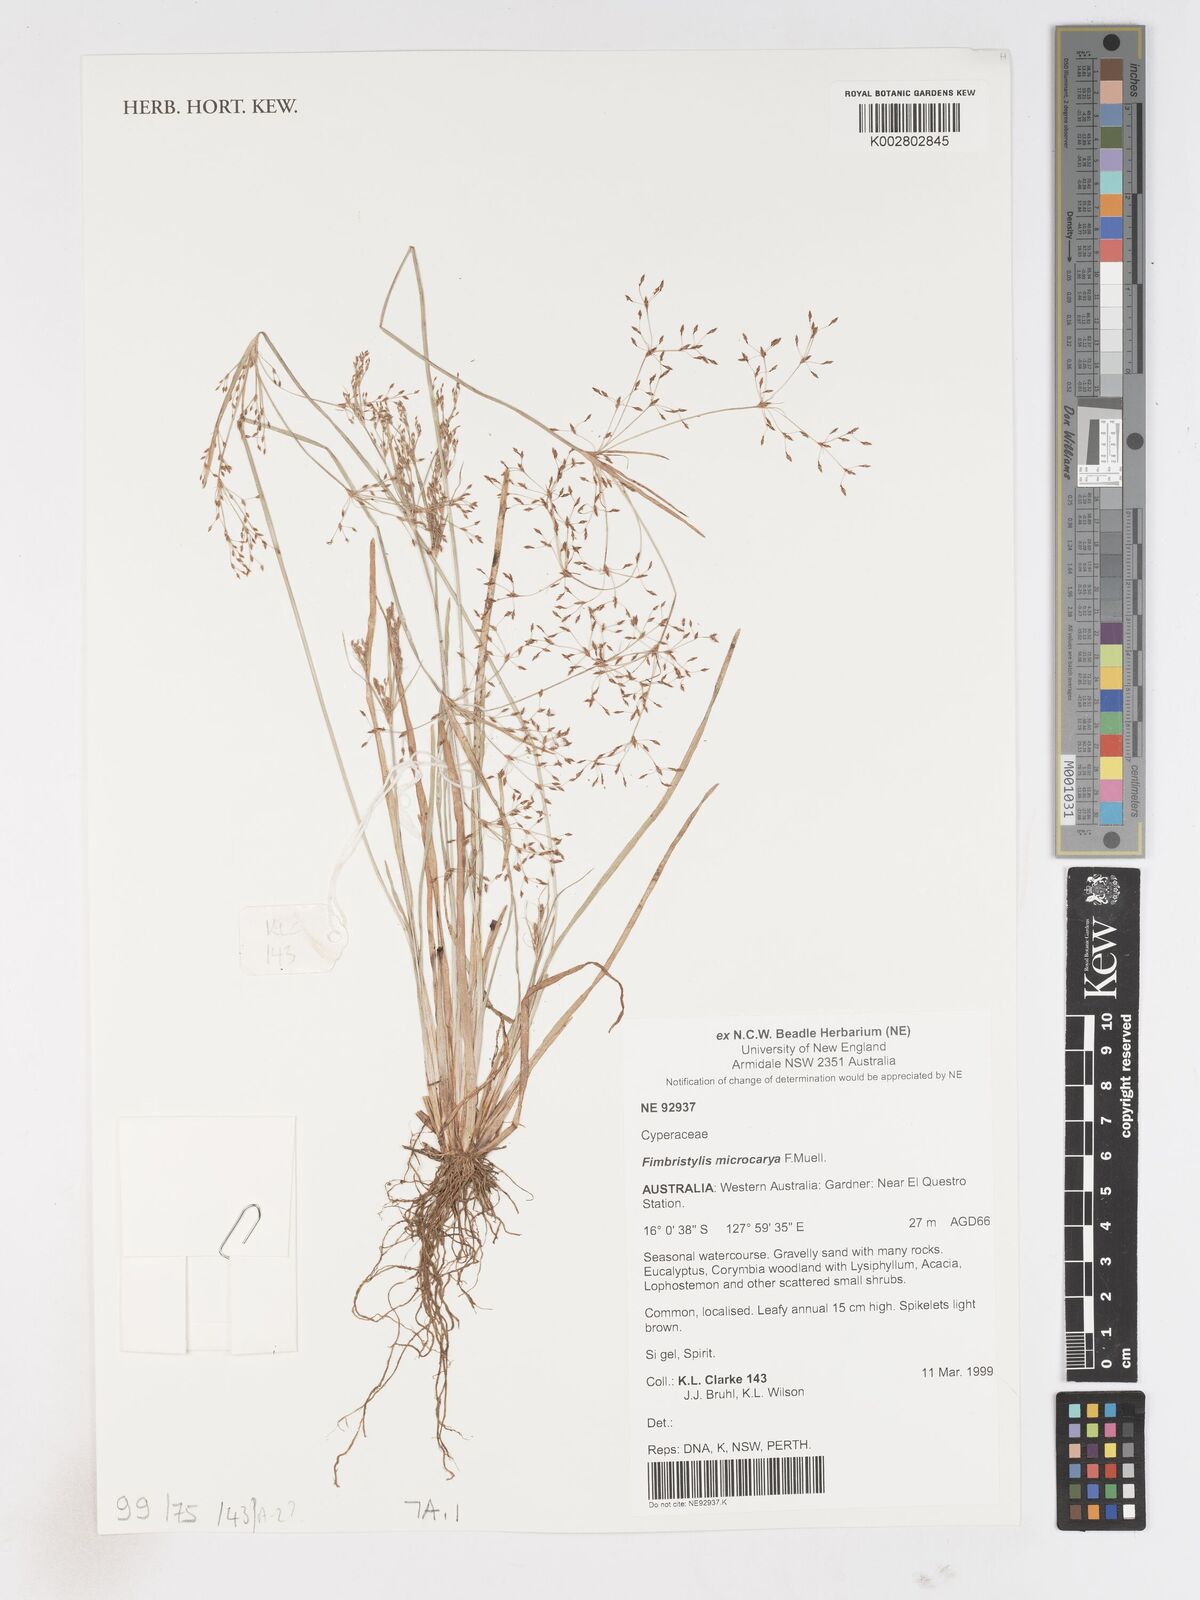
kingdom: Plantae
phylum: Tracheophyta
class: Liliopsida
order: Poales
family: Cyperaceae
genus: Fimbristylis
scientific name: Fimbristylis microcarya
